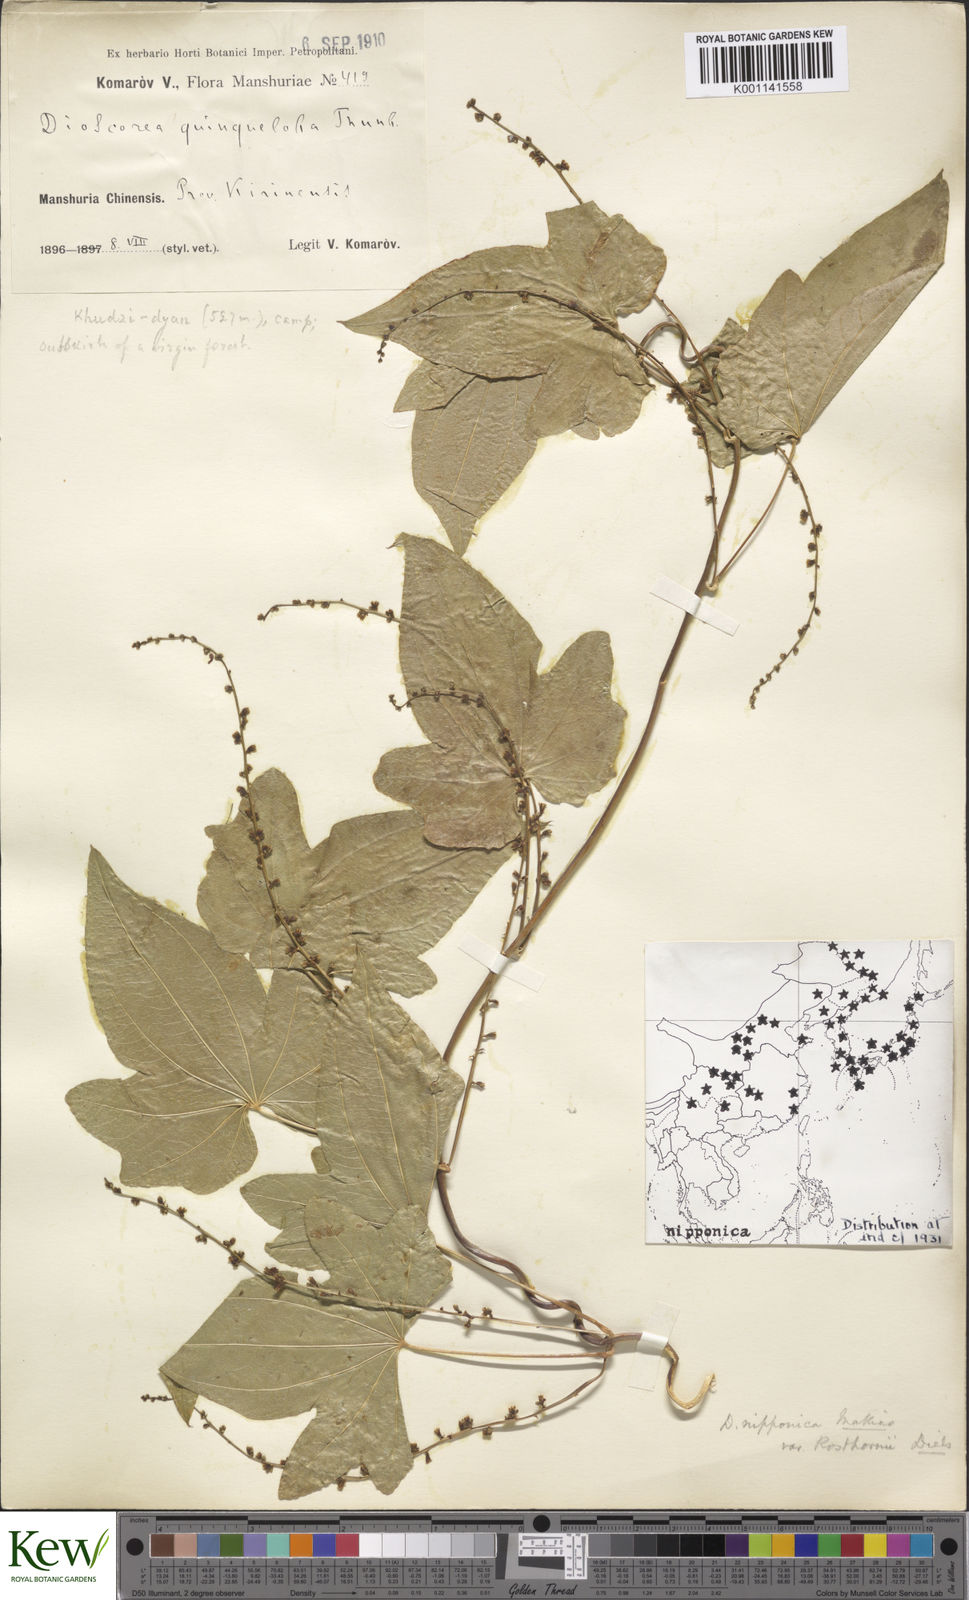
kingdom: Plantae
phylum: Tracheophyta
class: Liliopsida
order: Dioscoreales
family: Dioscoreaceae
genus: Dioscorea
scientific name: Dioscorea nipponica
